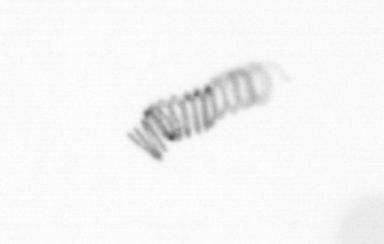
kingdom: Chromista
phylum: Ochrophyta
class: Bacillariophyceae
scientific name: Bacillariophyceae
